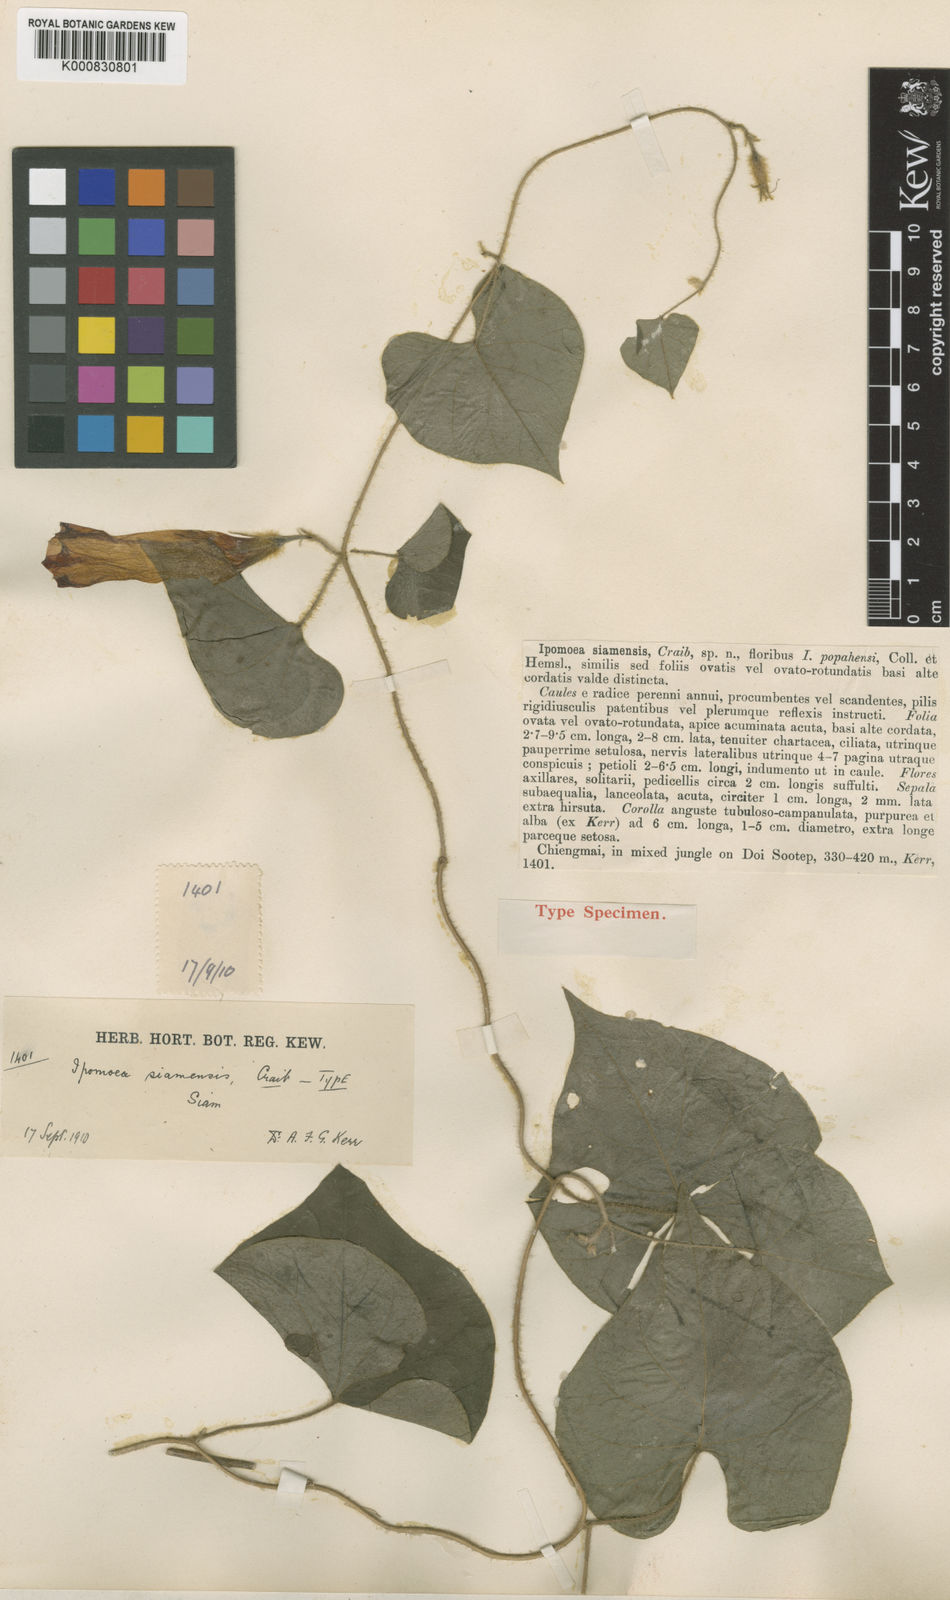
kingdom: Plantae
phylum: Tracheophyta
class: Magnoliopsida
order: Solanales
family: Convolvulaceae
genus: Argyreia
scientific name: Argyreia siamensis
